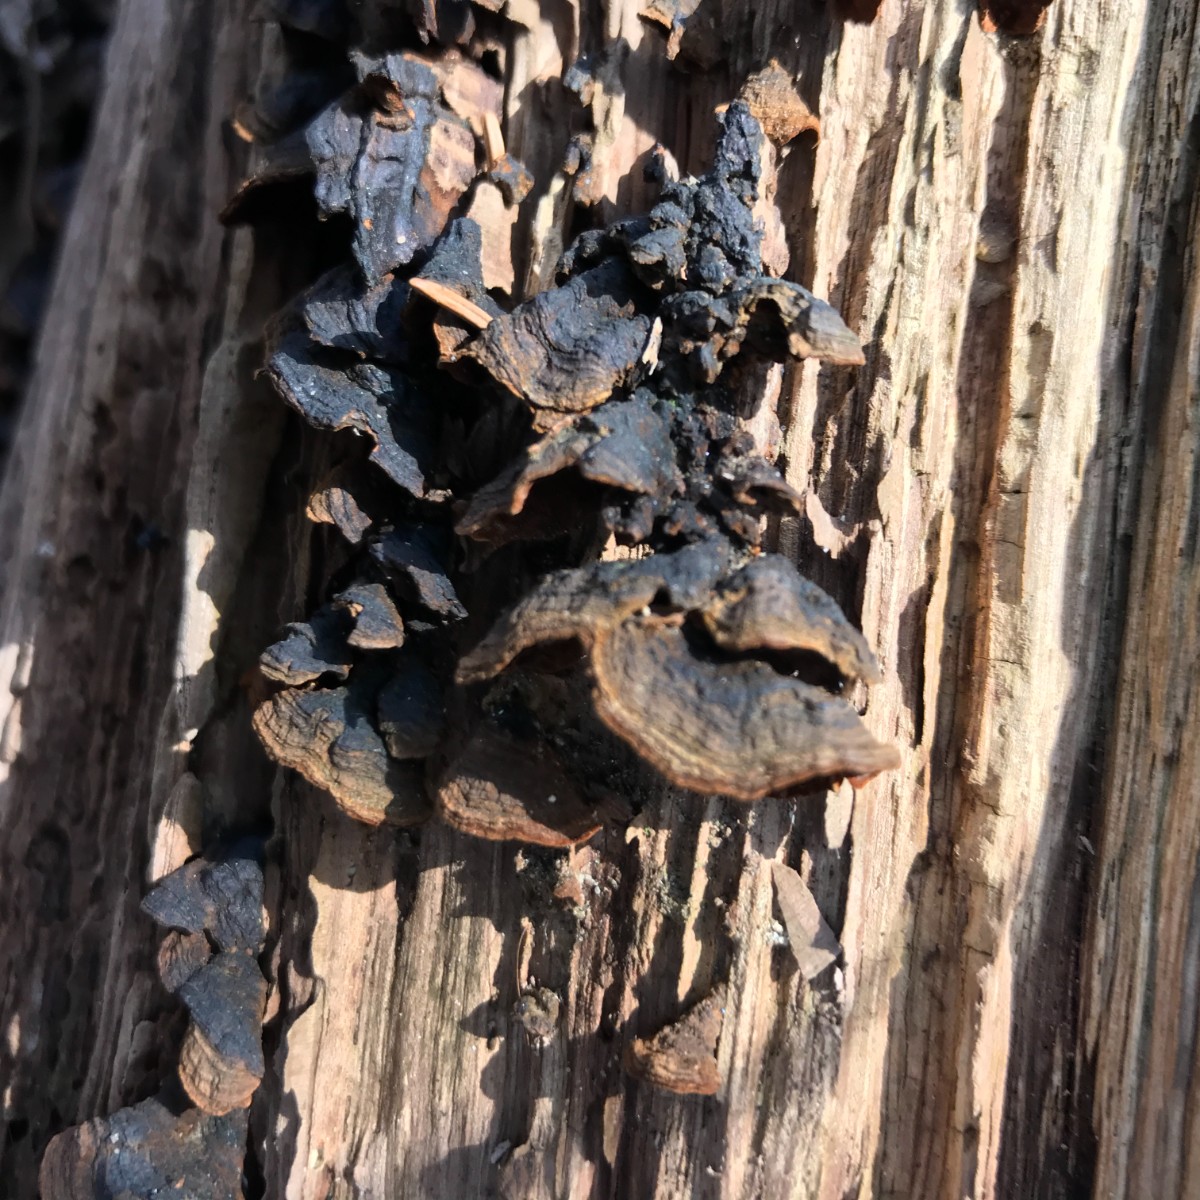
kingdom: Fungi
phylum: Basidiomycota
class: Agaricomycetes
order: Hymenochaetales
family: Hymenochaetaceae
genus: Hymenochaete
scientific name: Hymenochaete rubiginosa
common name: stiv ruslædersvamp
